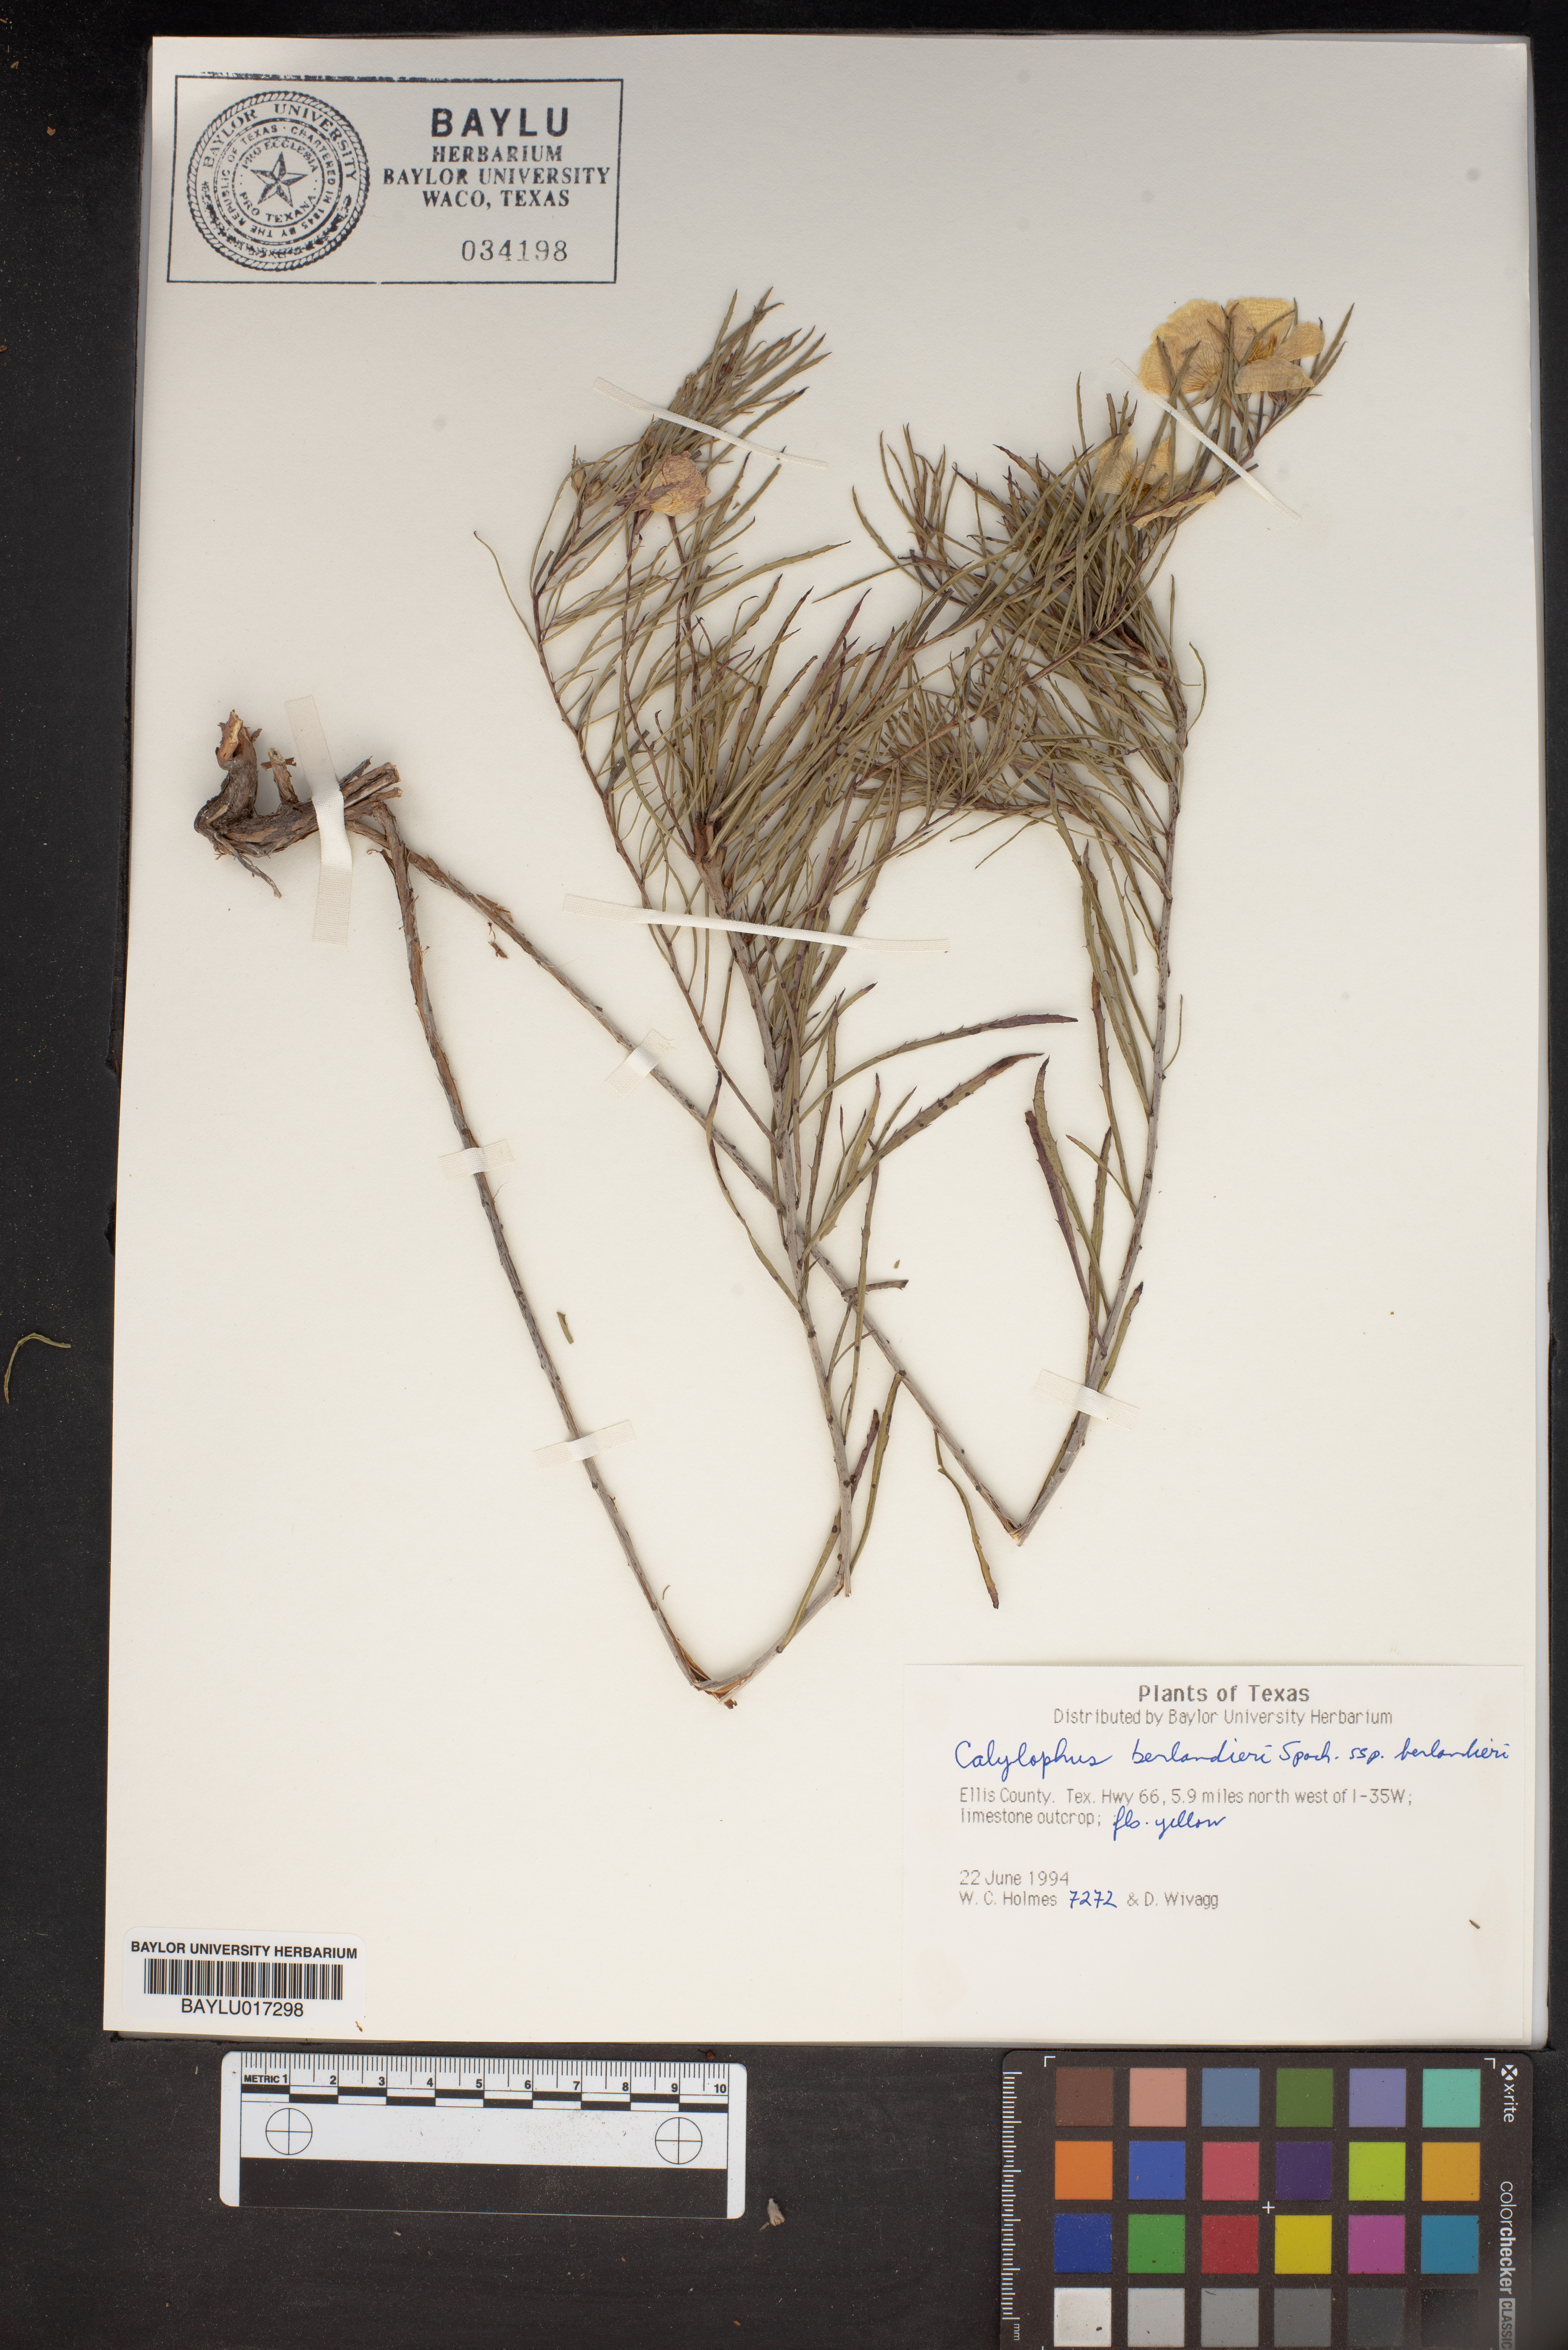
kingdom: Plantae
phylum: Tracheophyta
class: Magnoliopsida
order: Myrtales
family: Onagraceae
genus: Oenothera
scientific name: Oenothera capillifolia
